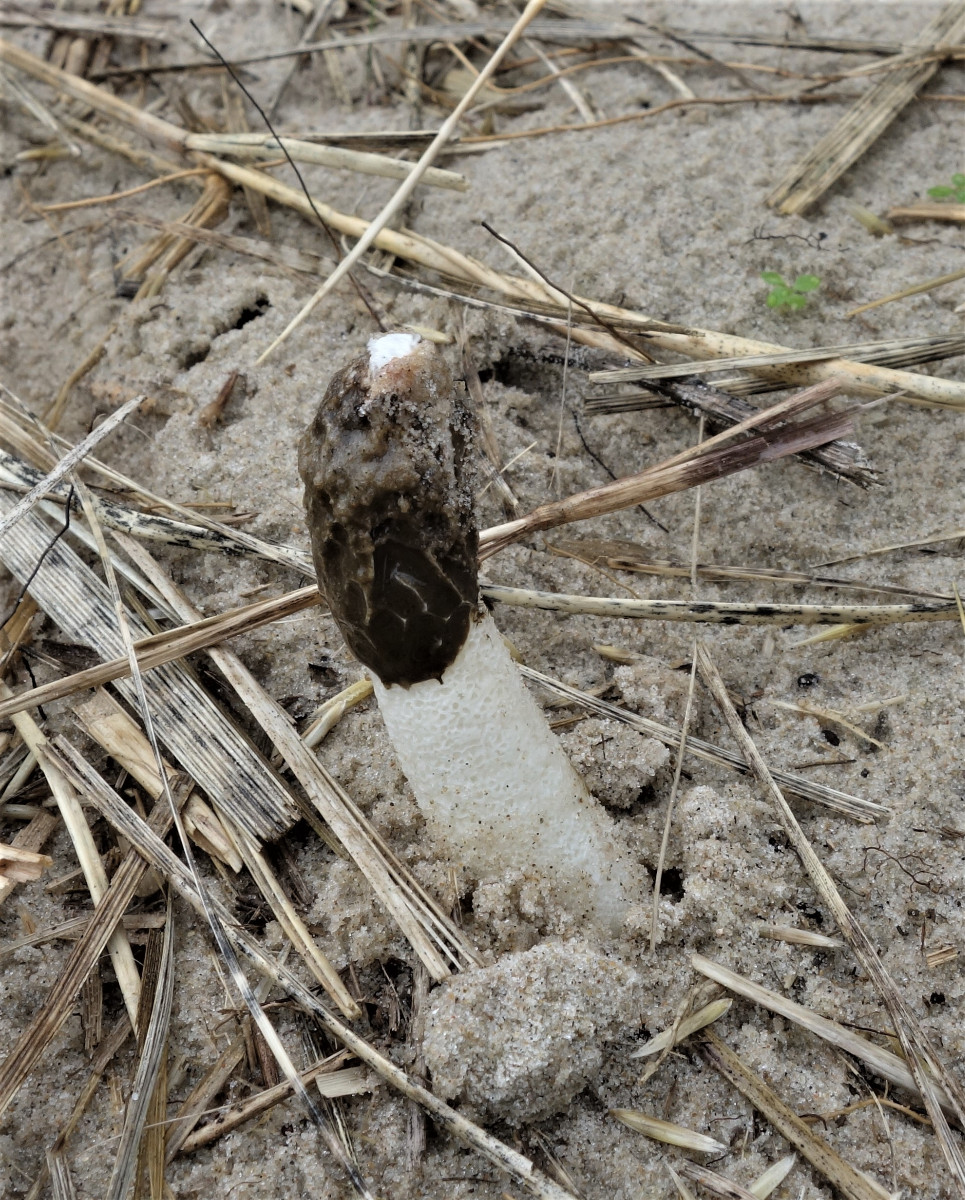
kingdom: Fungi
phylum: Basidiomycota
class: Agaricomycetes
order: Phallales
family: Phallaceae
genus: Phallus
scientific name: Phallus hadriani
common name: sand-stinksvamp
